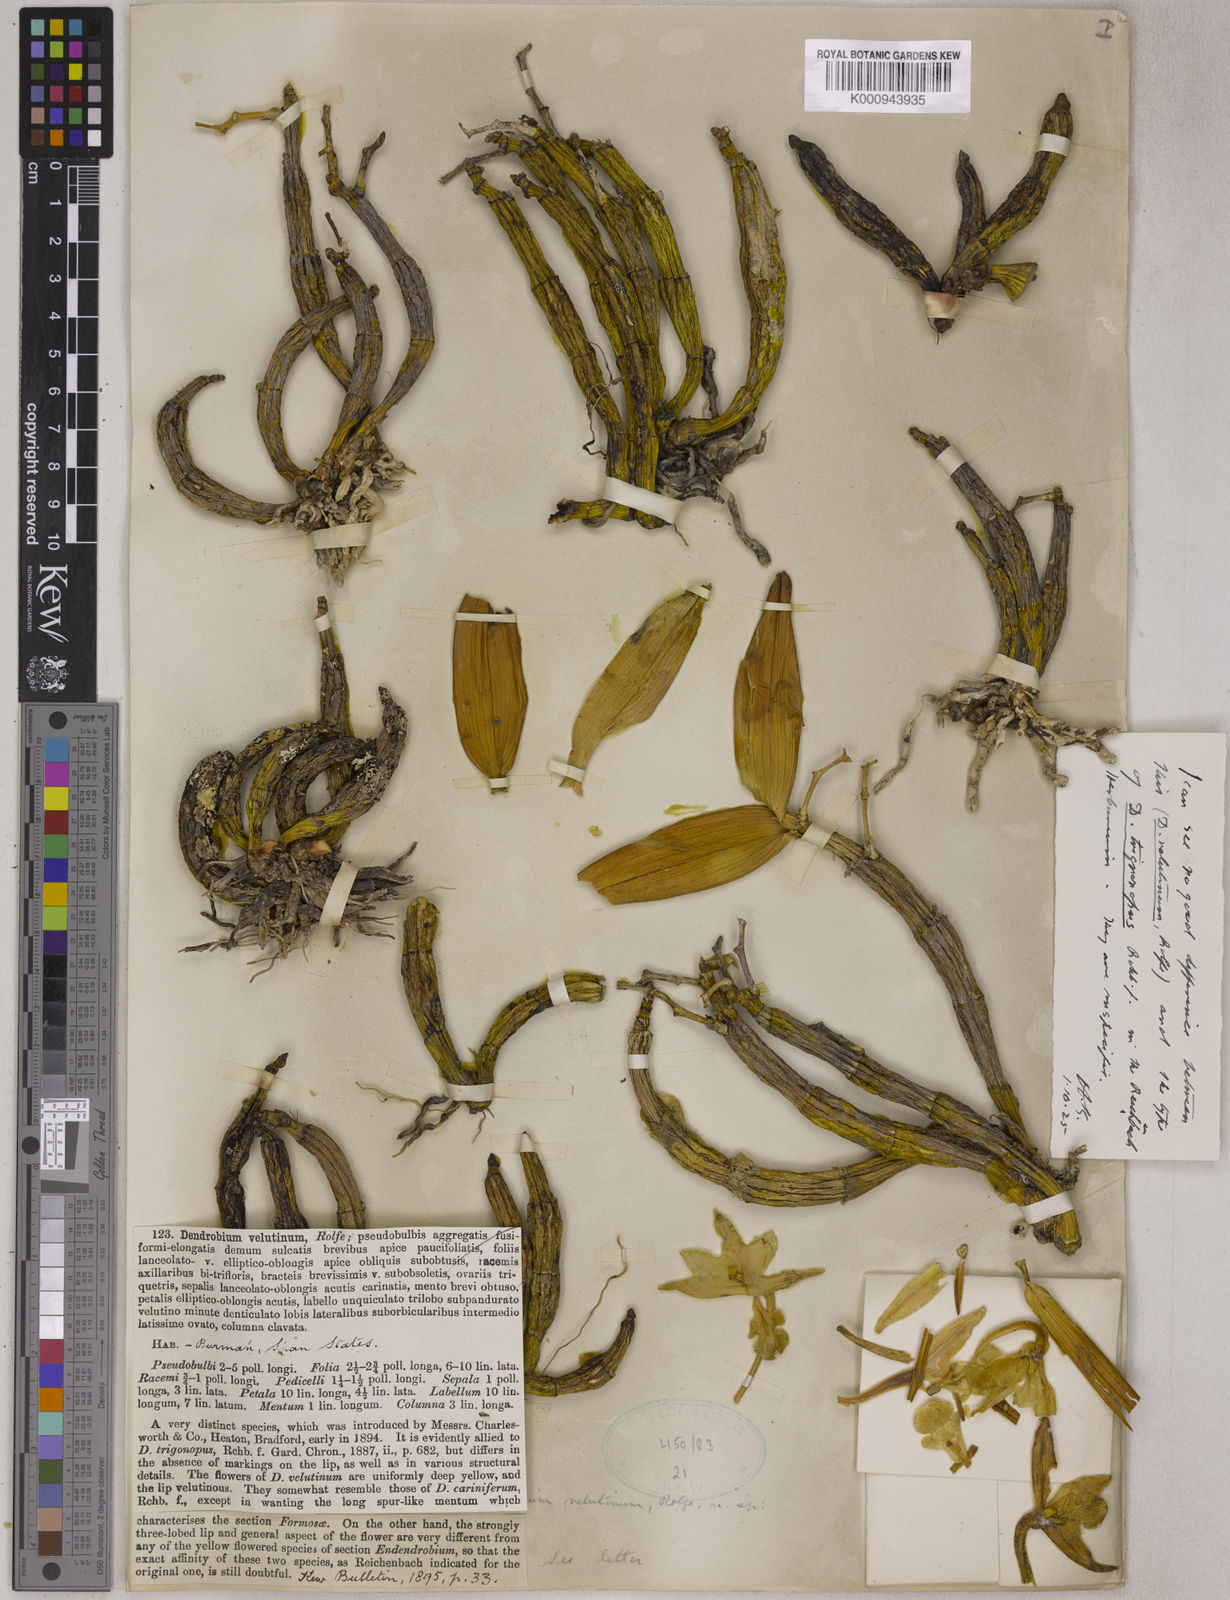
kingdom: Plantae
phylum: Tracheophyta
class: Liliopsida
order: Asparagales
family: Orchidaceae
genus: Dendrobium
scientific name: Dendrobium trigonopus
